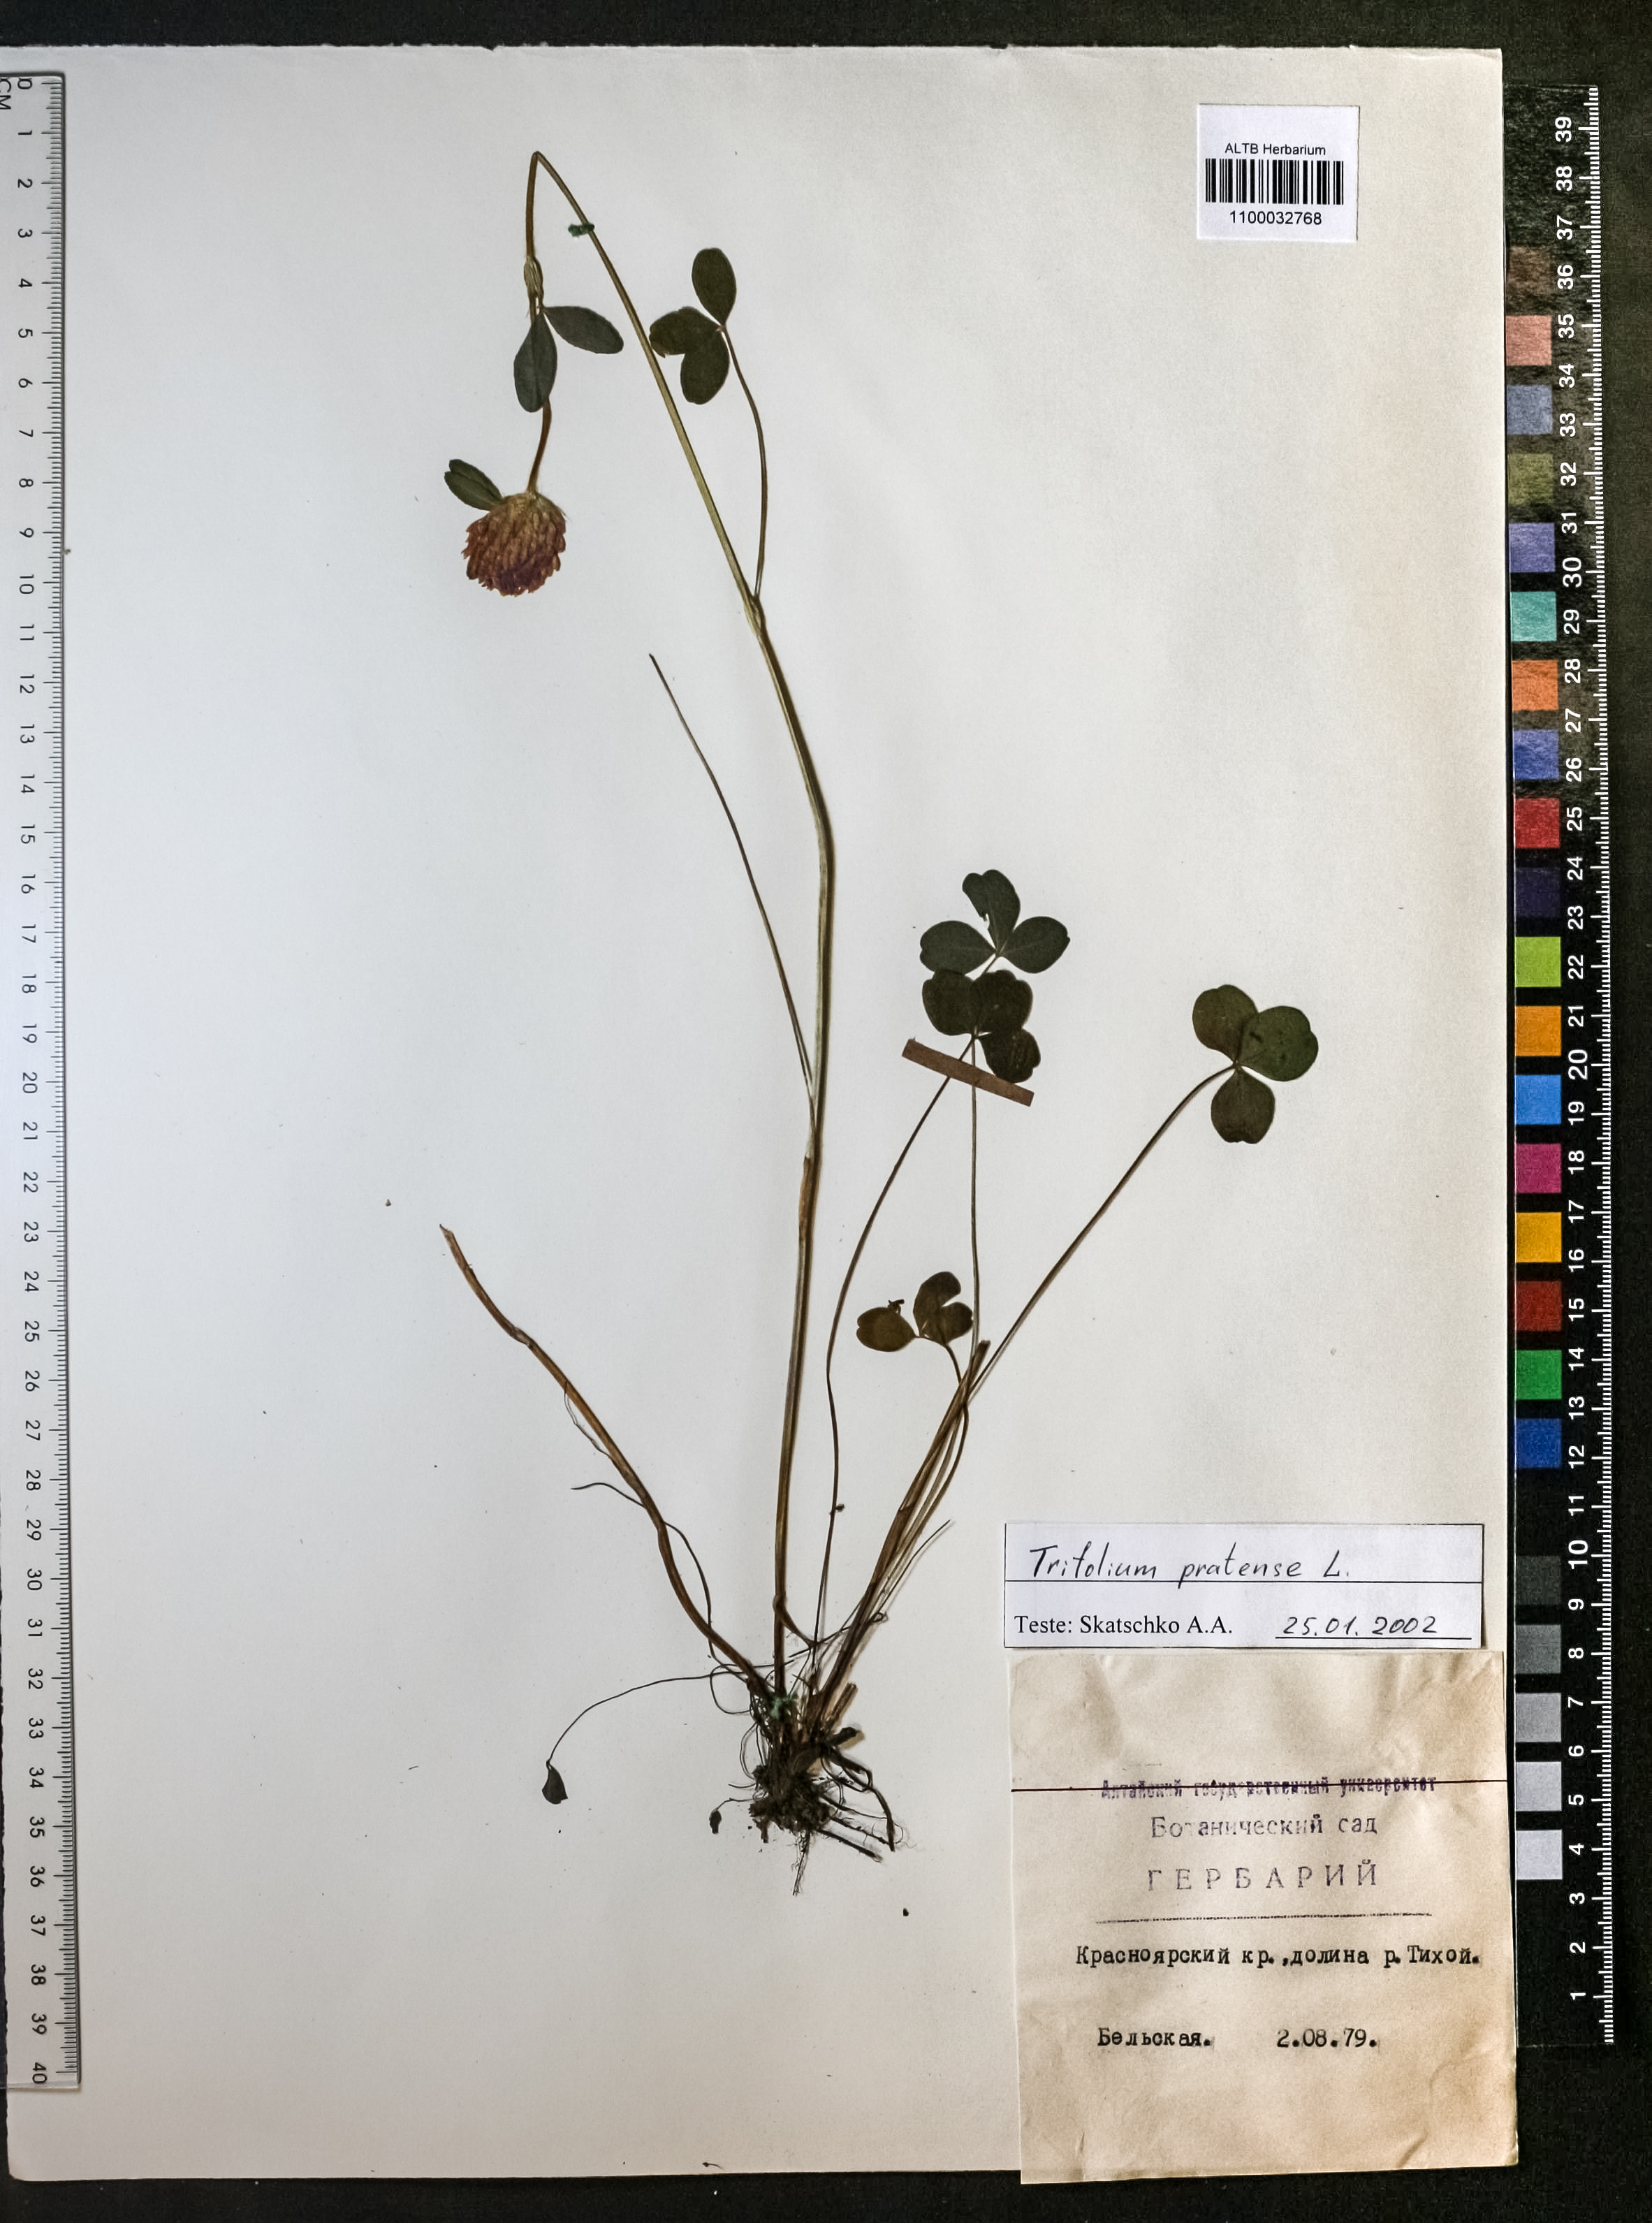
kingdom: Plantae
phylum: Tracheophyta
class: Magnoliopsida
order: Fabales
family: Fabaceae
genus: Trifolium
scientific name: Trifolium pratense
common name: Red clover
